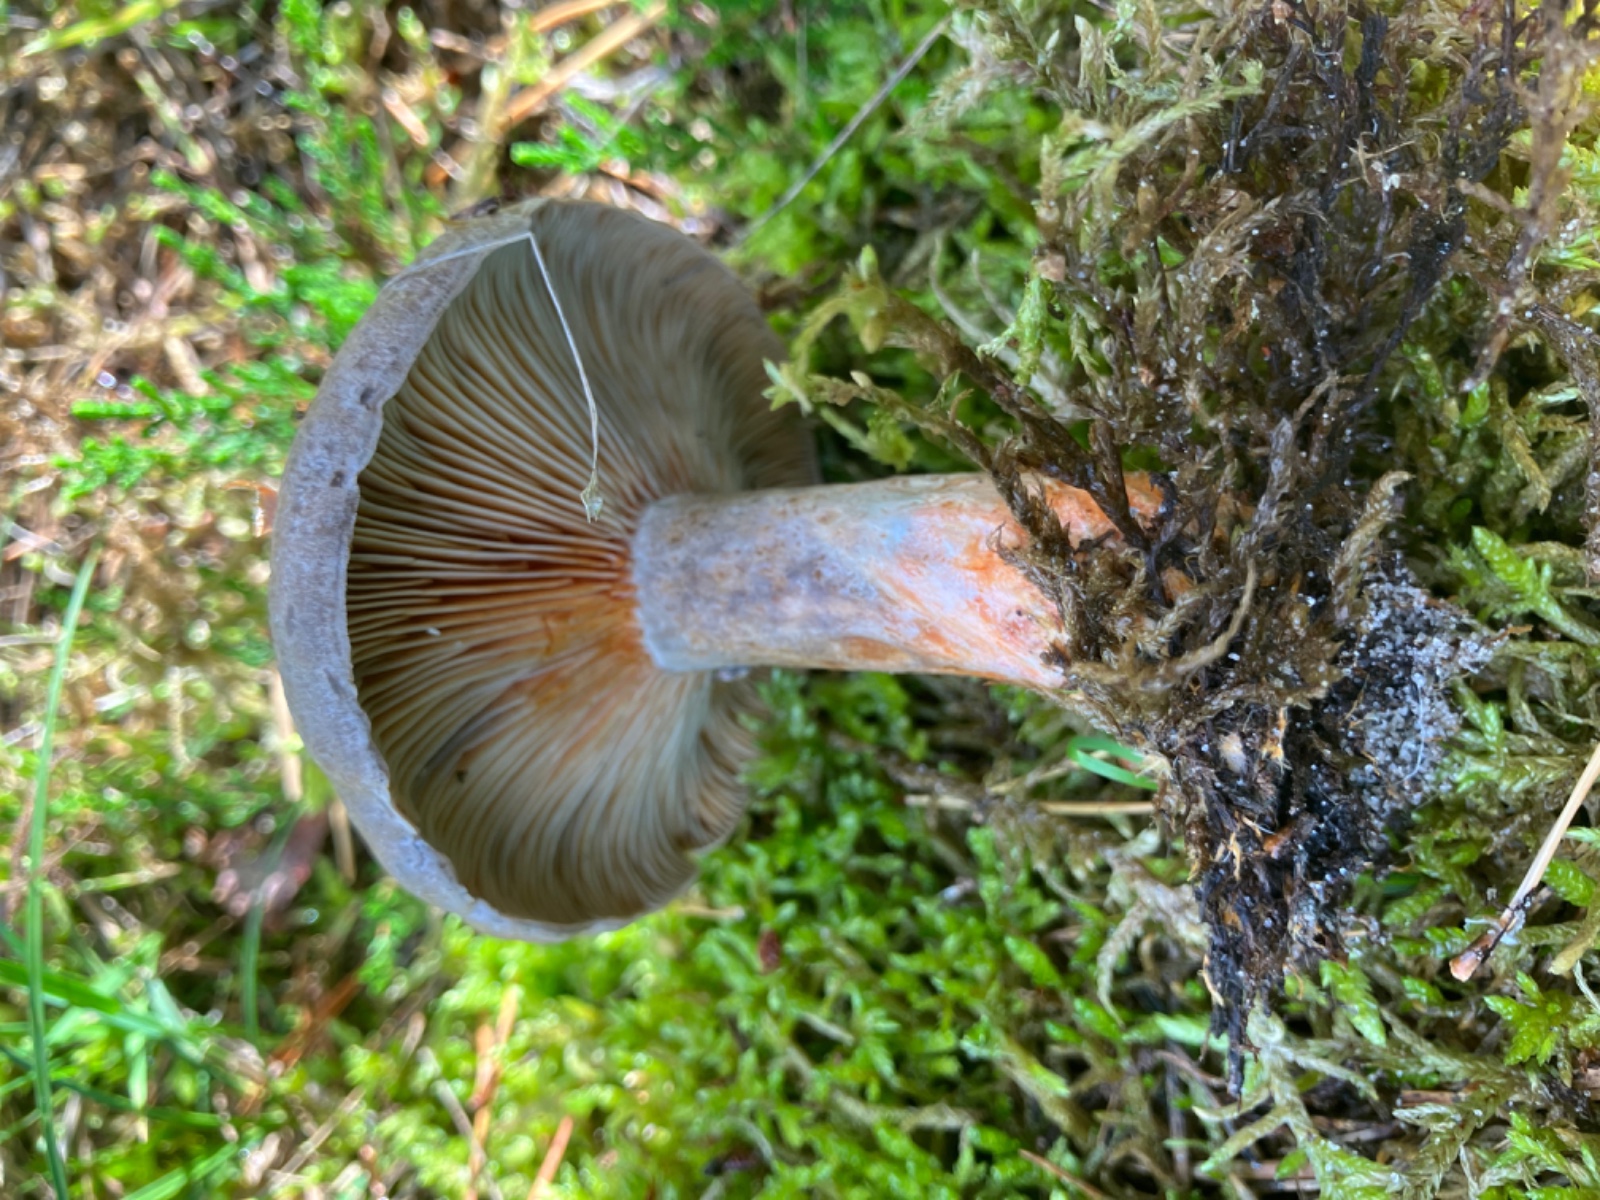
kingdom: Fungi
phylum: Basidiomycota
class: Agaricomycetes
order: Russulales
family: Russulaceae
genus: Lactarius
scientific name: Lactarius quieticolor
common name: tvefarvet mælkehat
